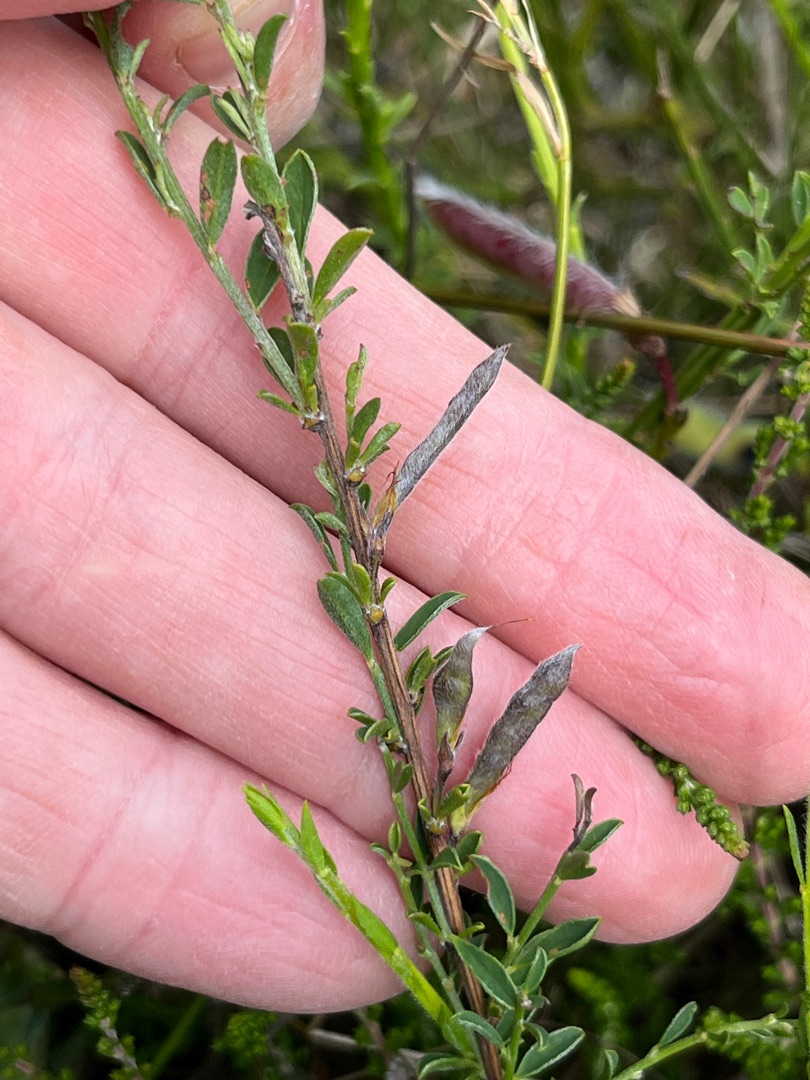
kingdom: Plantae
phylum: Tracheophyta
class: Magnoliopsida
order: Fabales
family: Fabaceae
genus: Genista
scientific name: Genista pilosa
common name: Håret visse
